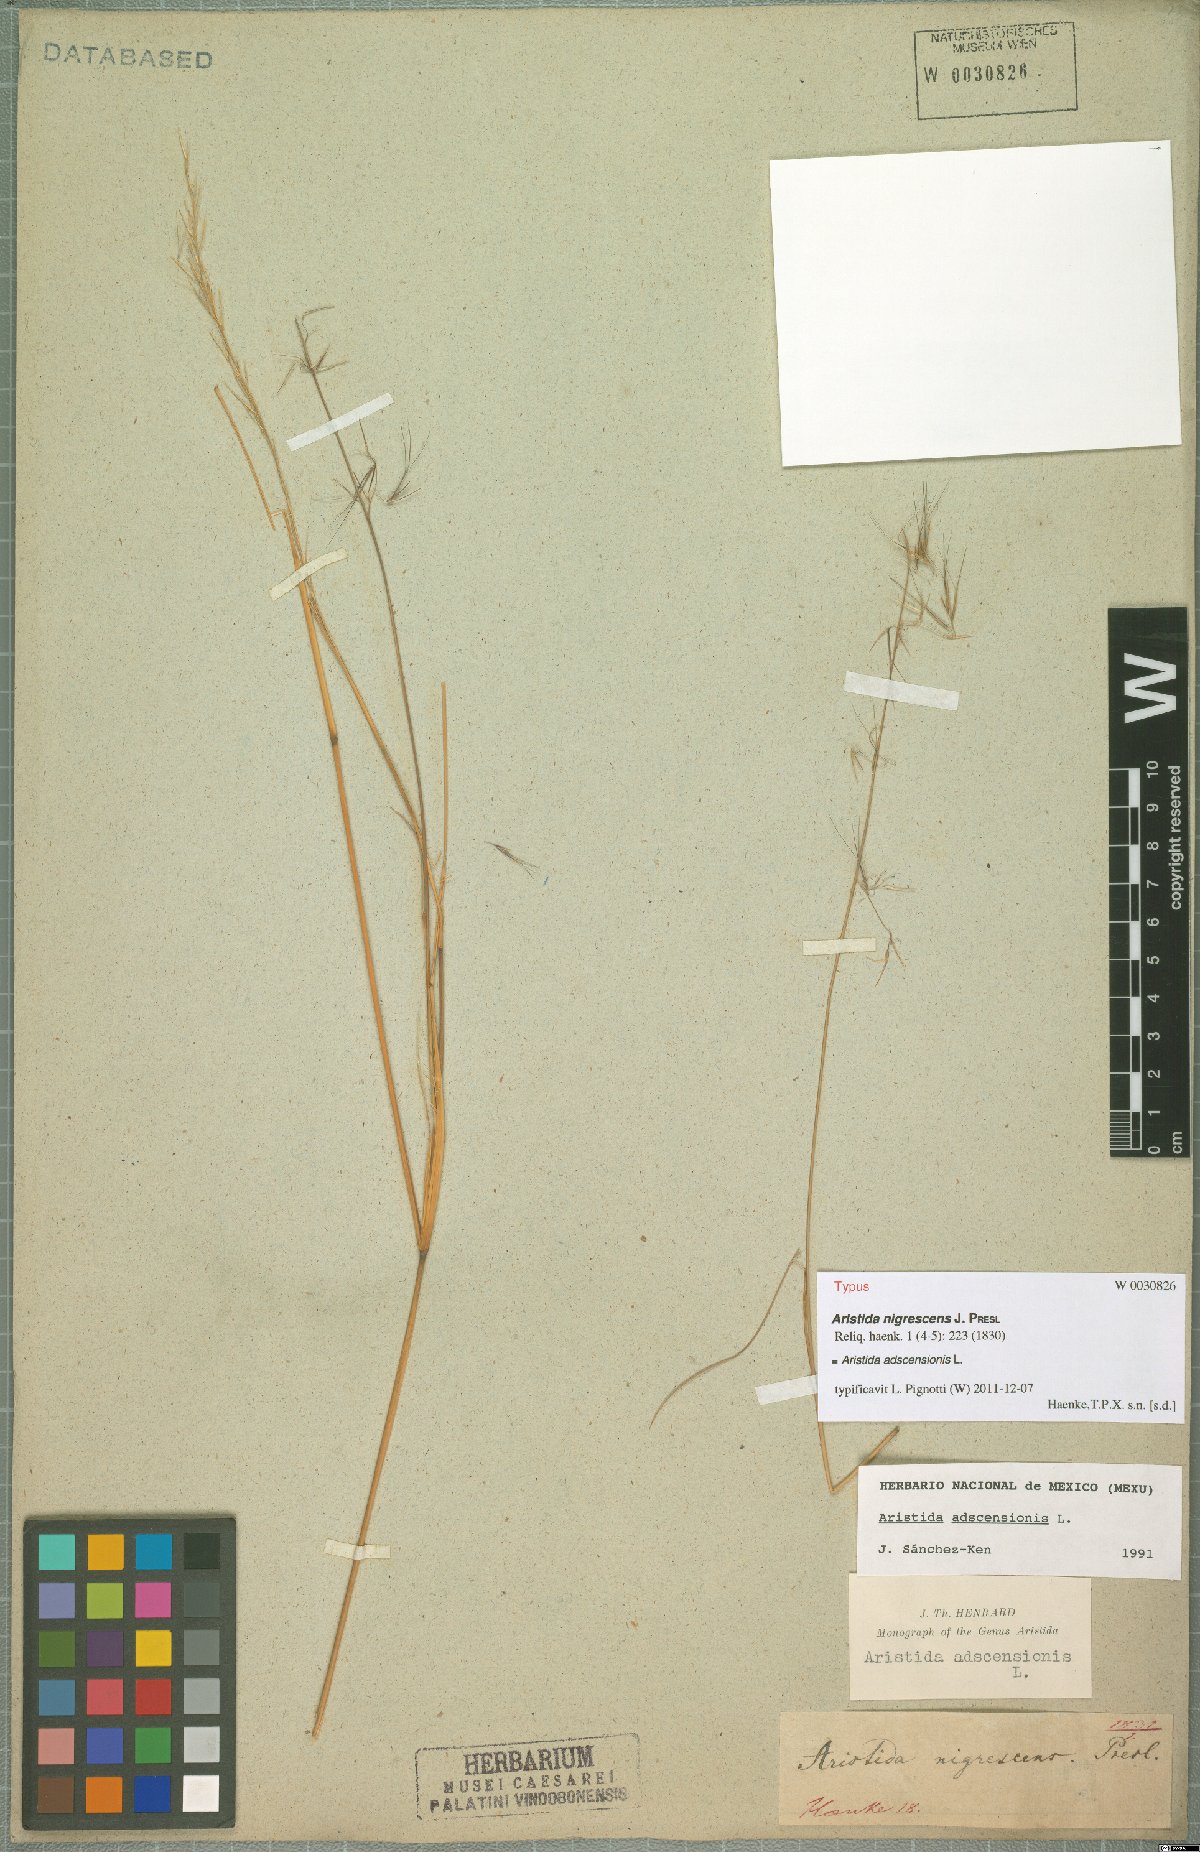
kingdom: Plantae
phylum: Tracheophyta
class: Liliopsida
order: Poales
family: Poaceae
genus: Aristida
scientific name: Aristida adscensionis
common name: Sixweeks threeawn
